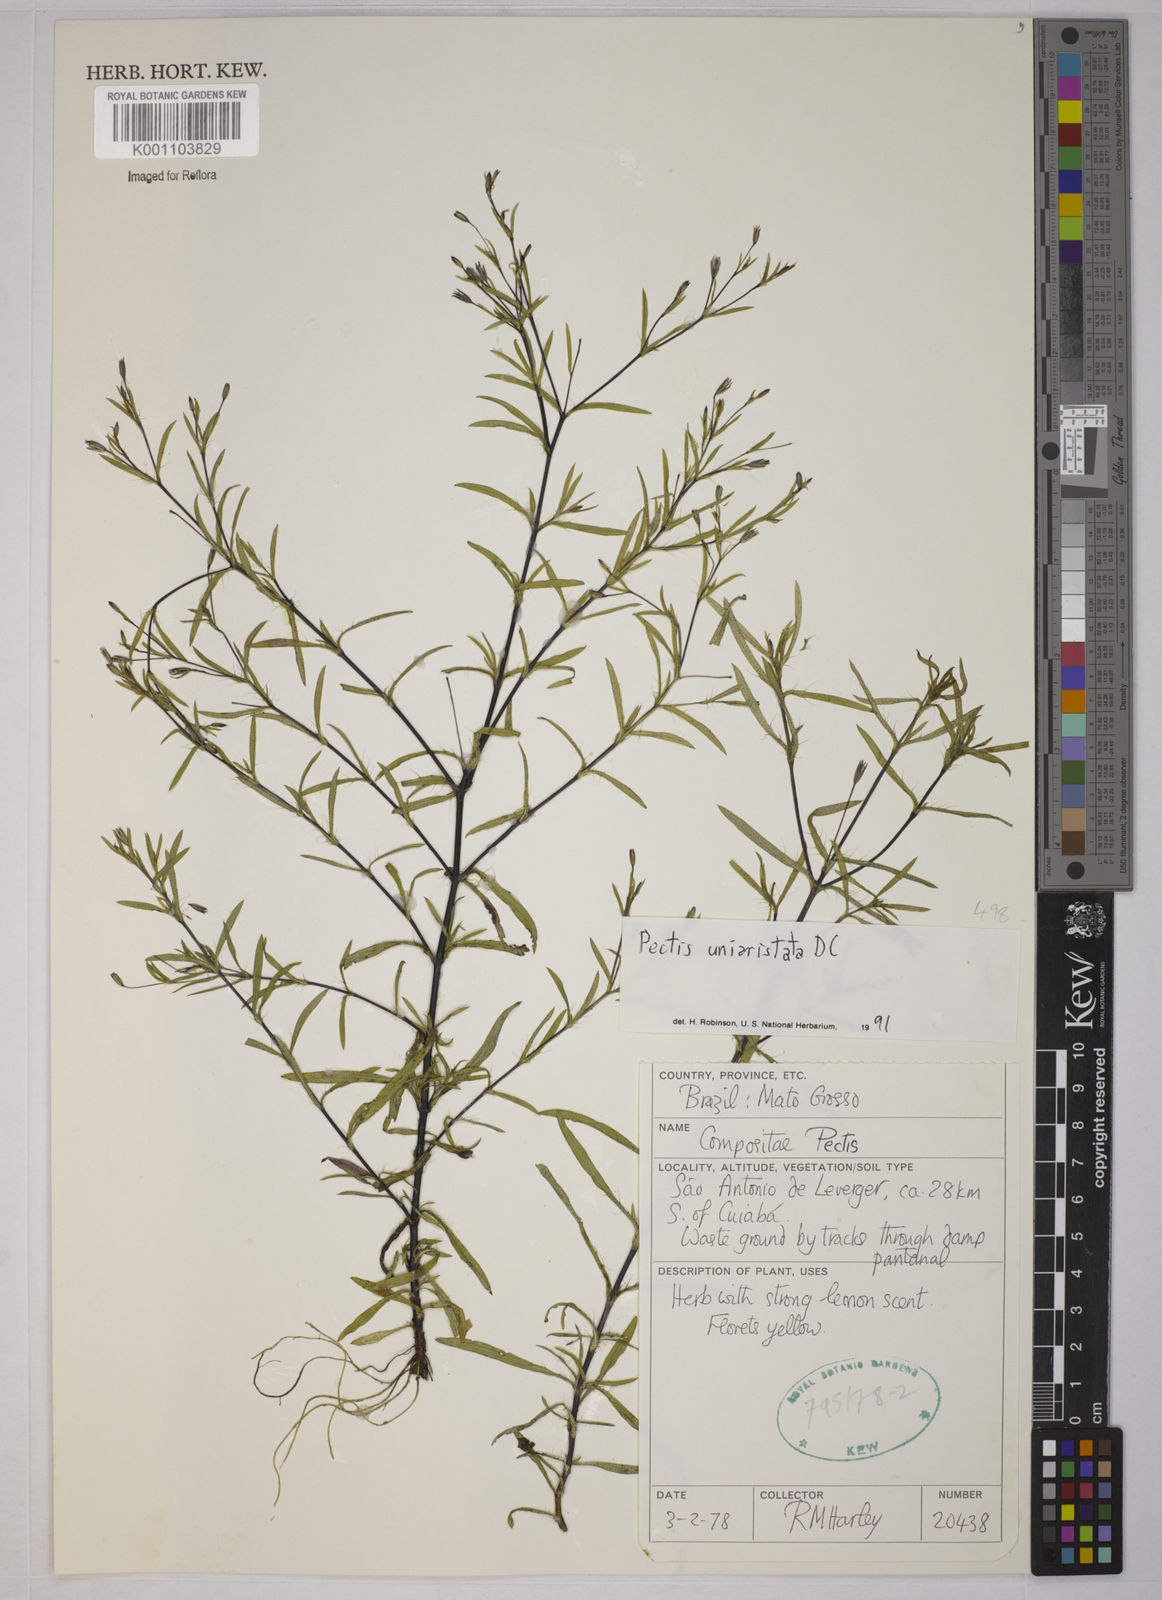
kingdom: Plantae
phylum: Tracheophyta
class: Magnoliopsida
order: Asterales
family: Asteraceae
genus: Pectis
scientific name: Pectis uniaristata
